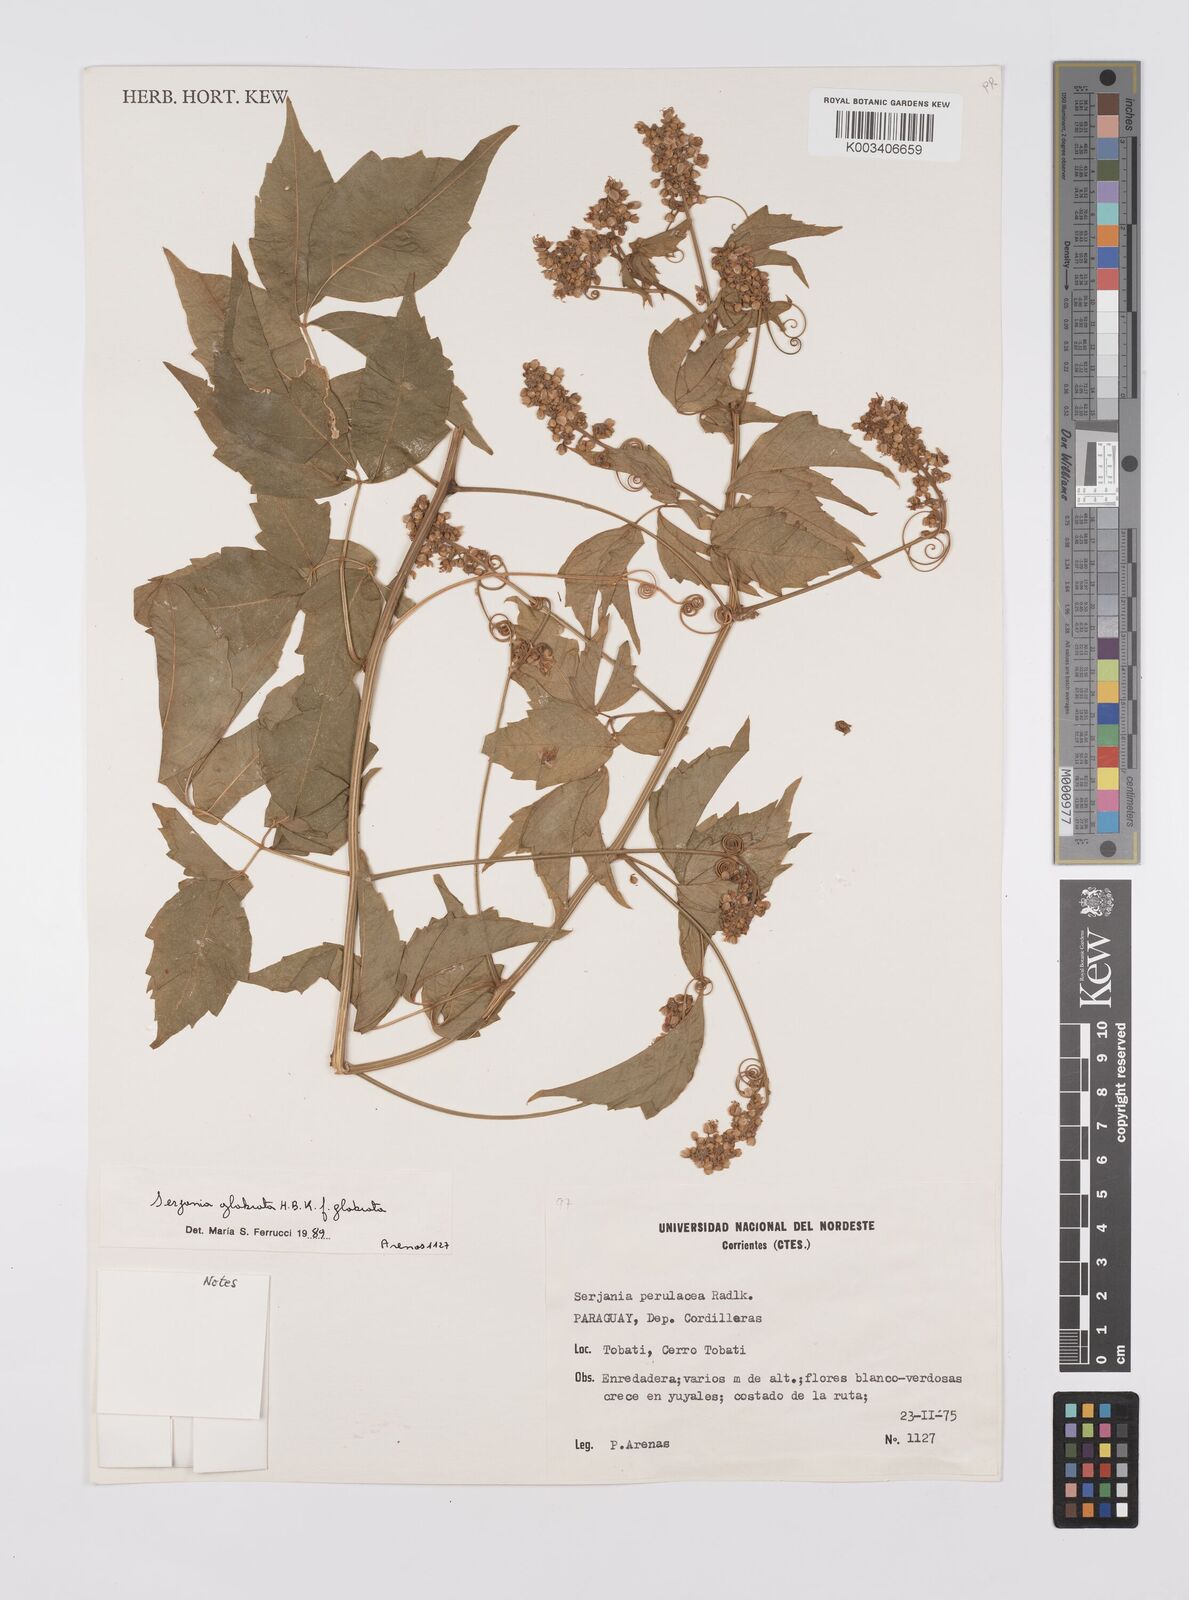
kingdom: Plantae
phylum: Tracheophyta
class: Magnoliopsida
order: Sapindales
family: Sapindaceae
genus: Serjania
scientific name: Serjania perulacea
